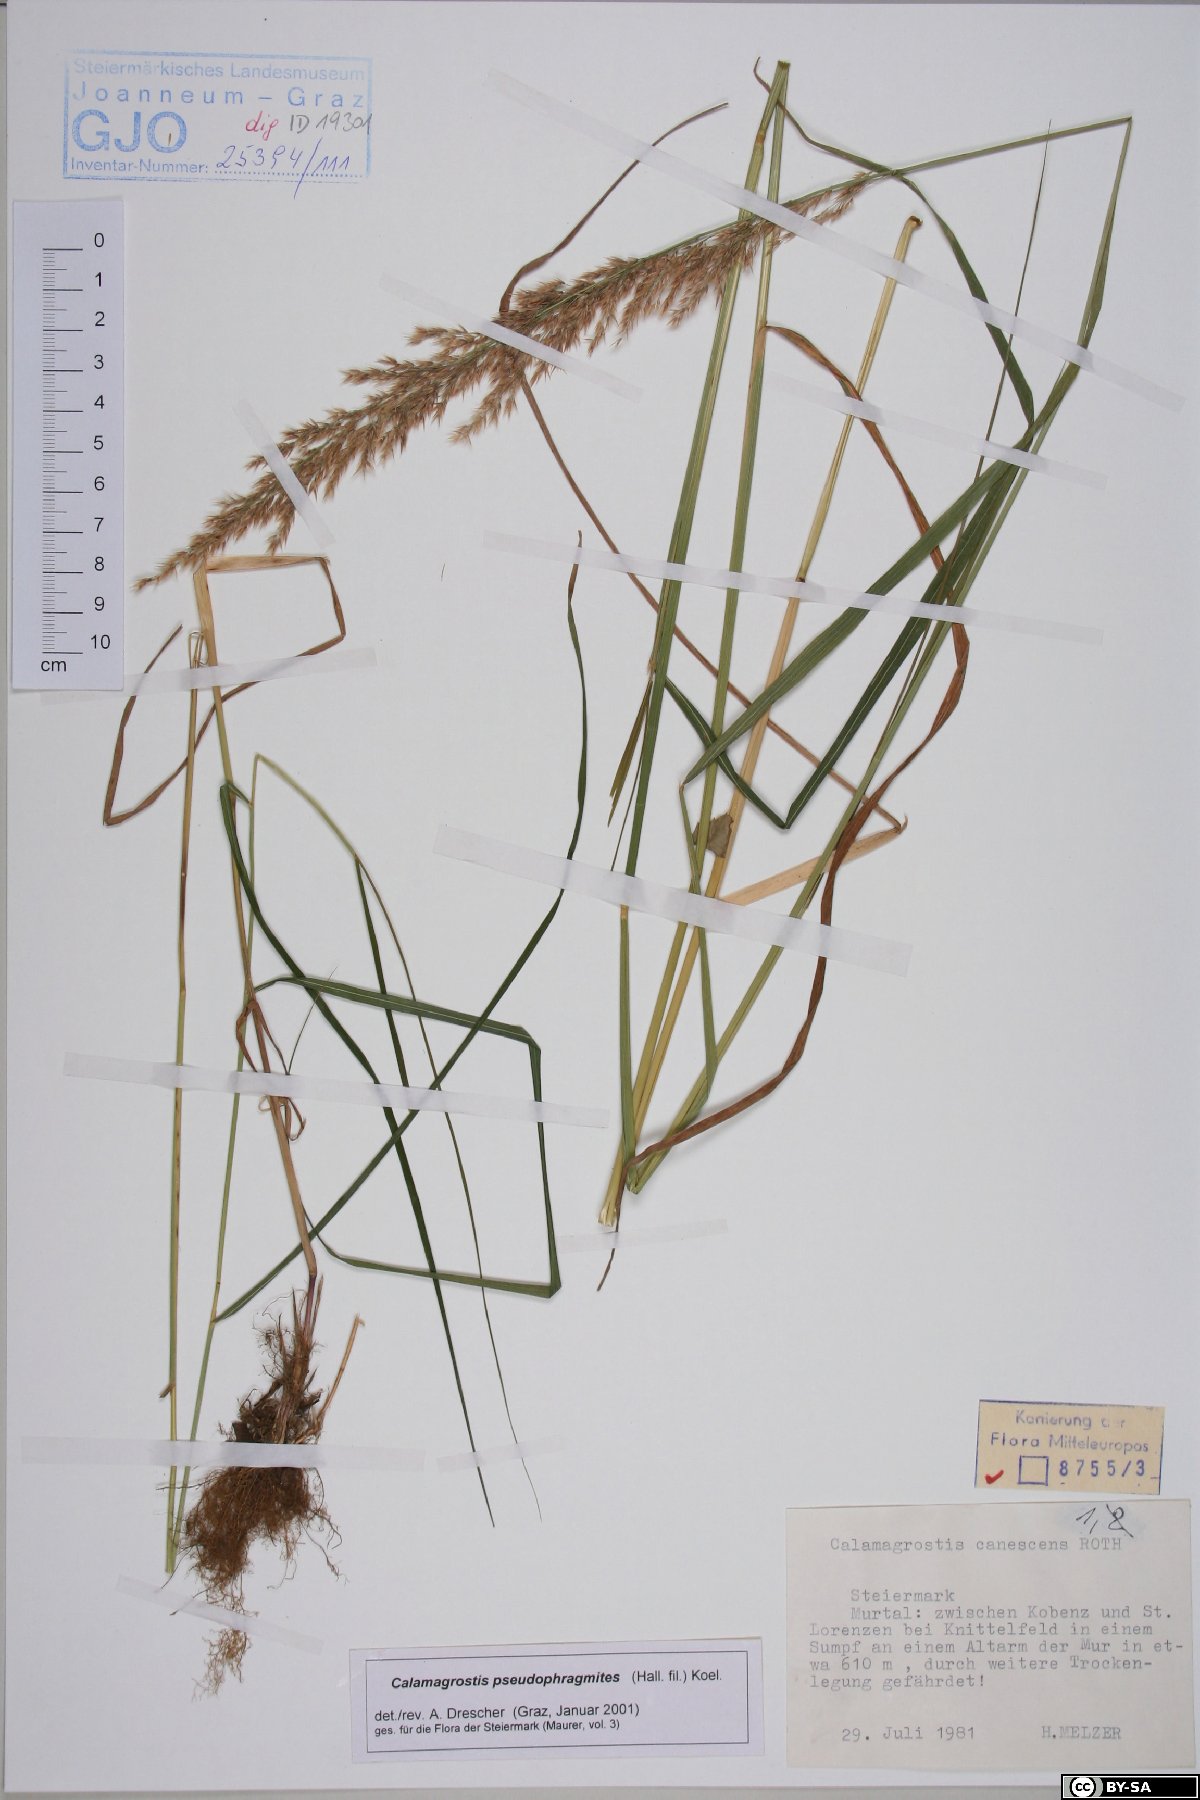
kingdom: Plantae
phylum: Tracheophyta
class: Liliopsida
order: Poales
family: Poaceae
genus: Calamagrostis
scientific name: Calamagrostis pseudophragmites
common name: Coastal small-reed
